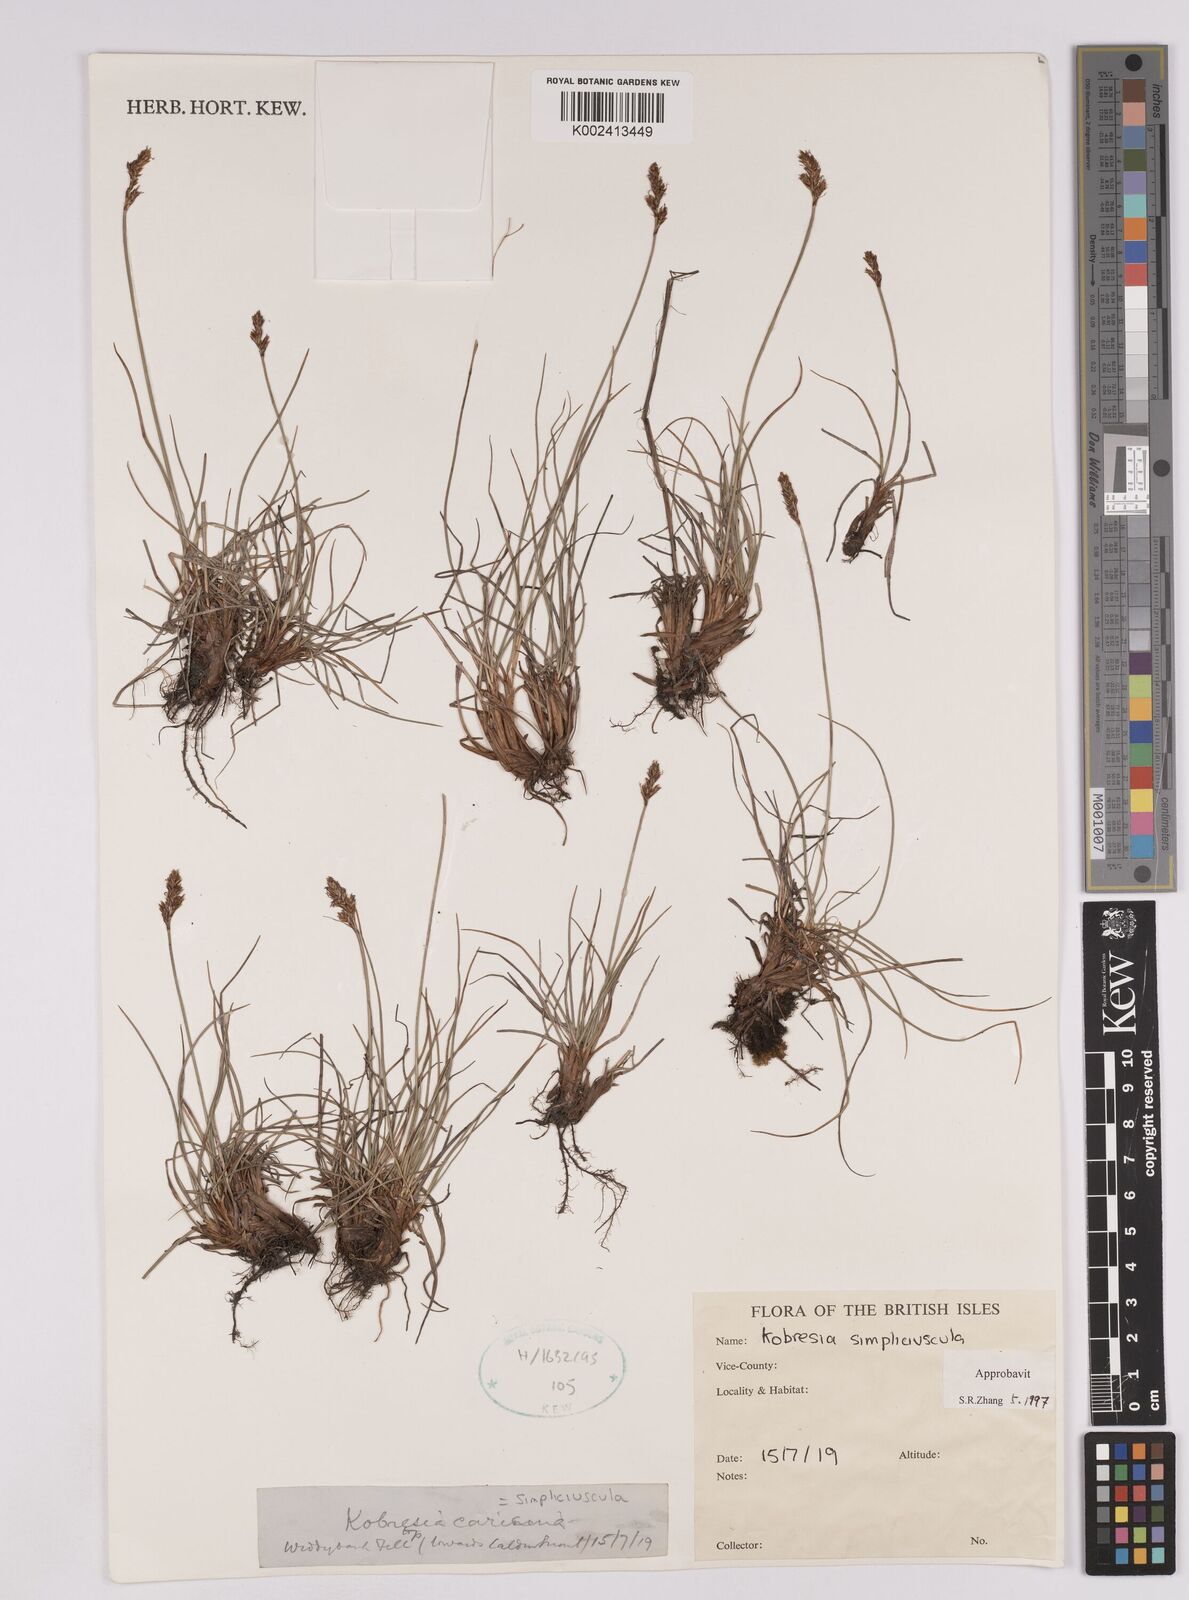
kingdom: Plantae
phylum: Tracheophyta
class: Liliopsida
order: Poales
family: Cyperaceae
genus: Carex
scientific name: Carex simpliciuscula
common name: Simple bog sedge
